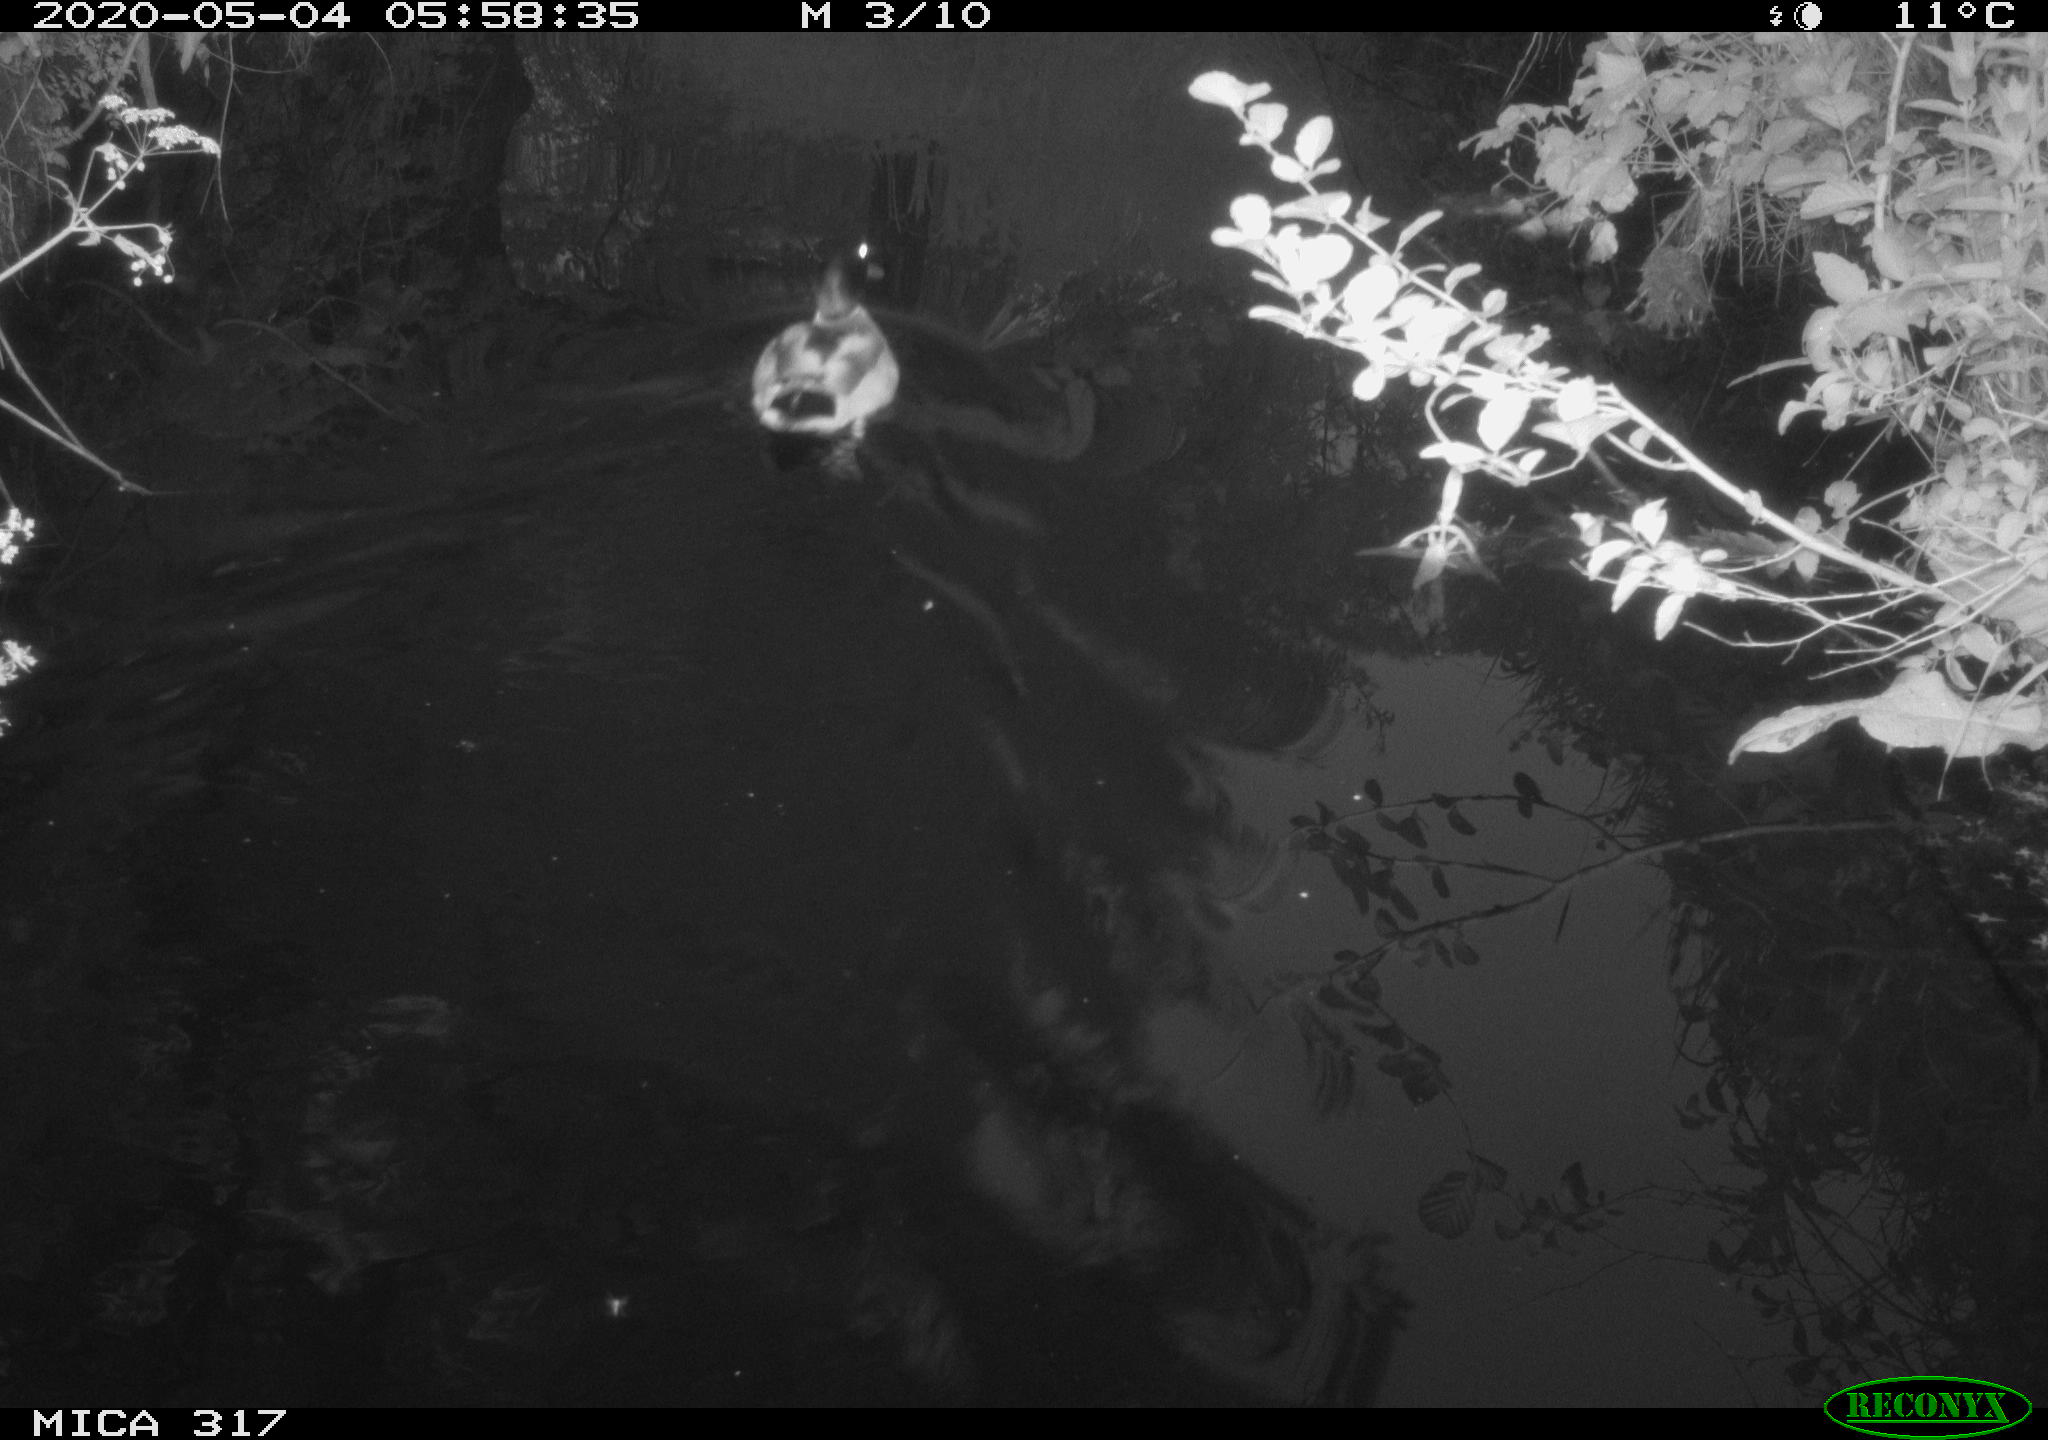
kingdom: Animalia
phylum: Chordata
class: Aves
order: Anseriformes
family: Anatidae
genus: Anas
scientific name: Anas platyrhynchos
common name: Mallard
